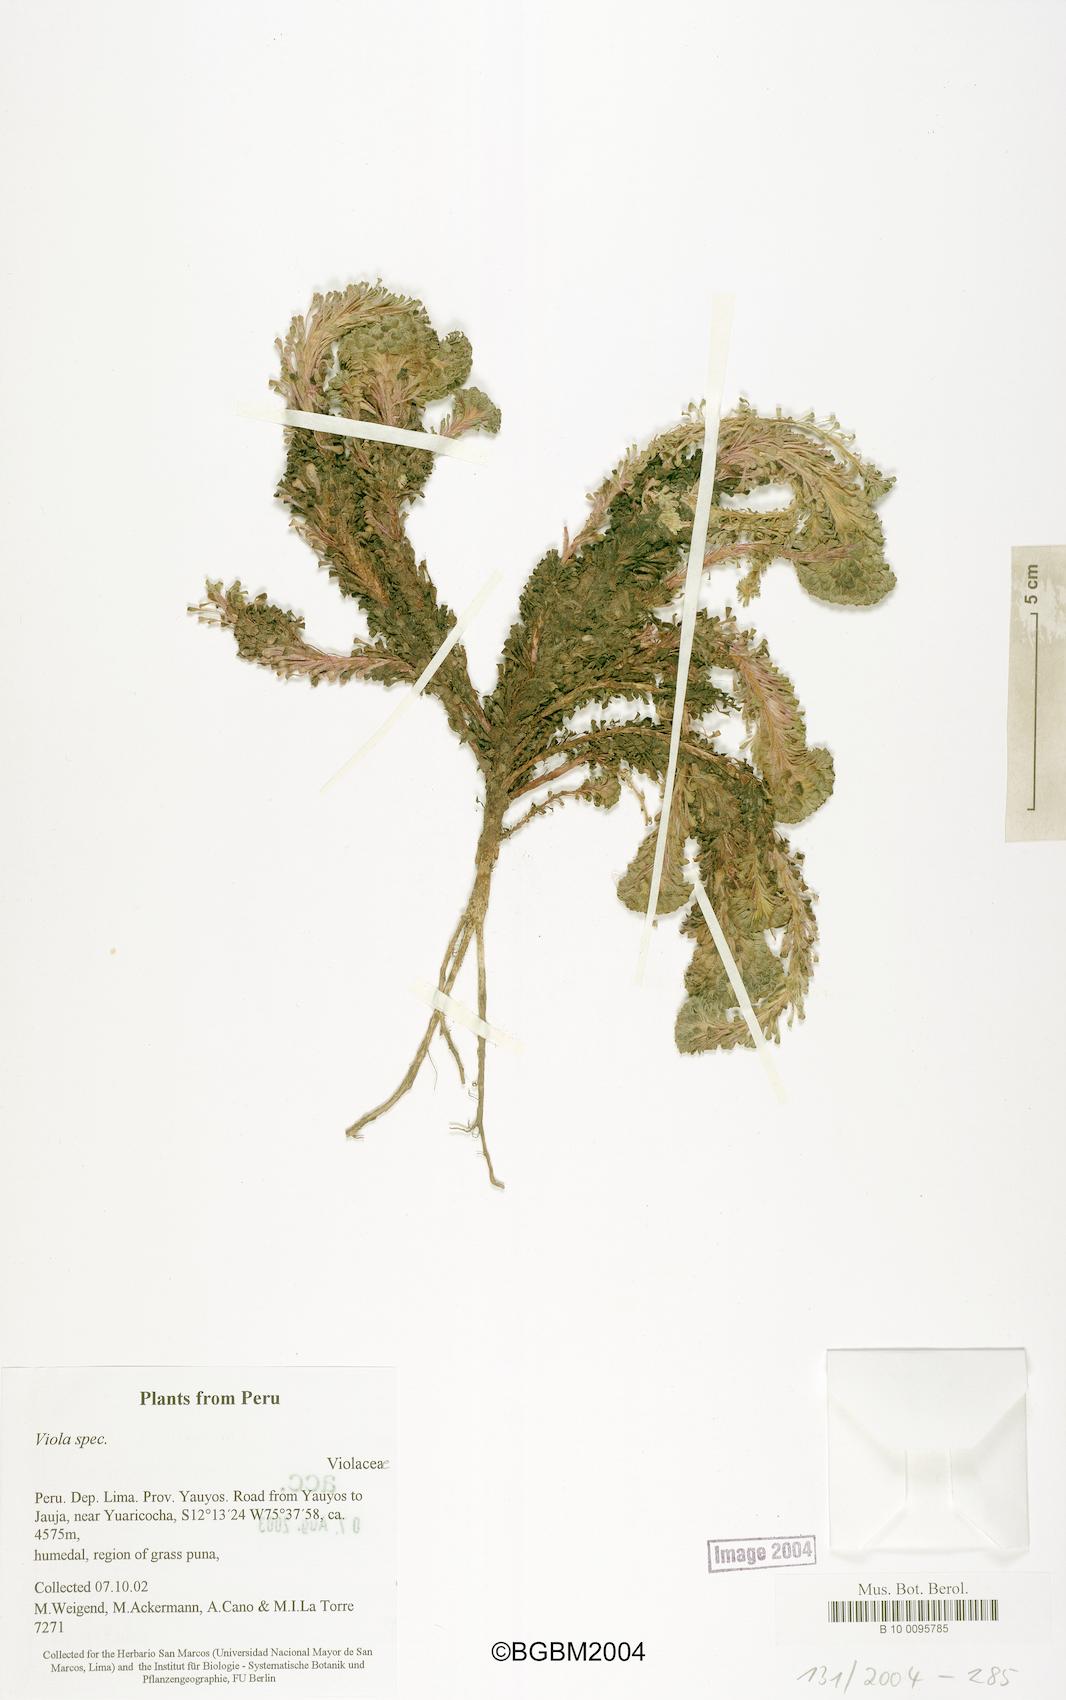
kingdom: Plantae
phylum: Tracheophyta
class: Magnoliopsida
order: Malpighiales
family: Violaceae
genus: Viola
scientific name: Viola
